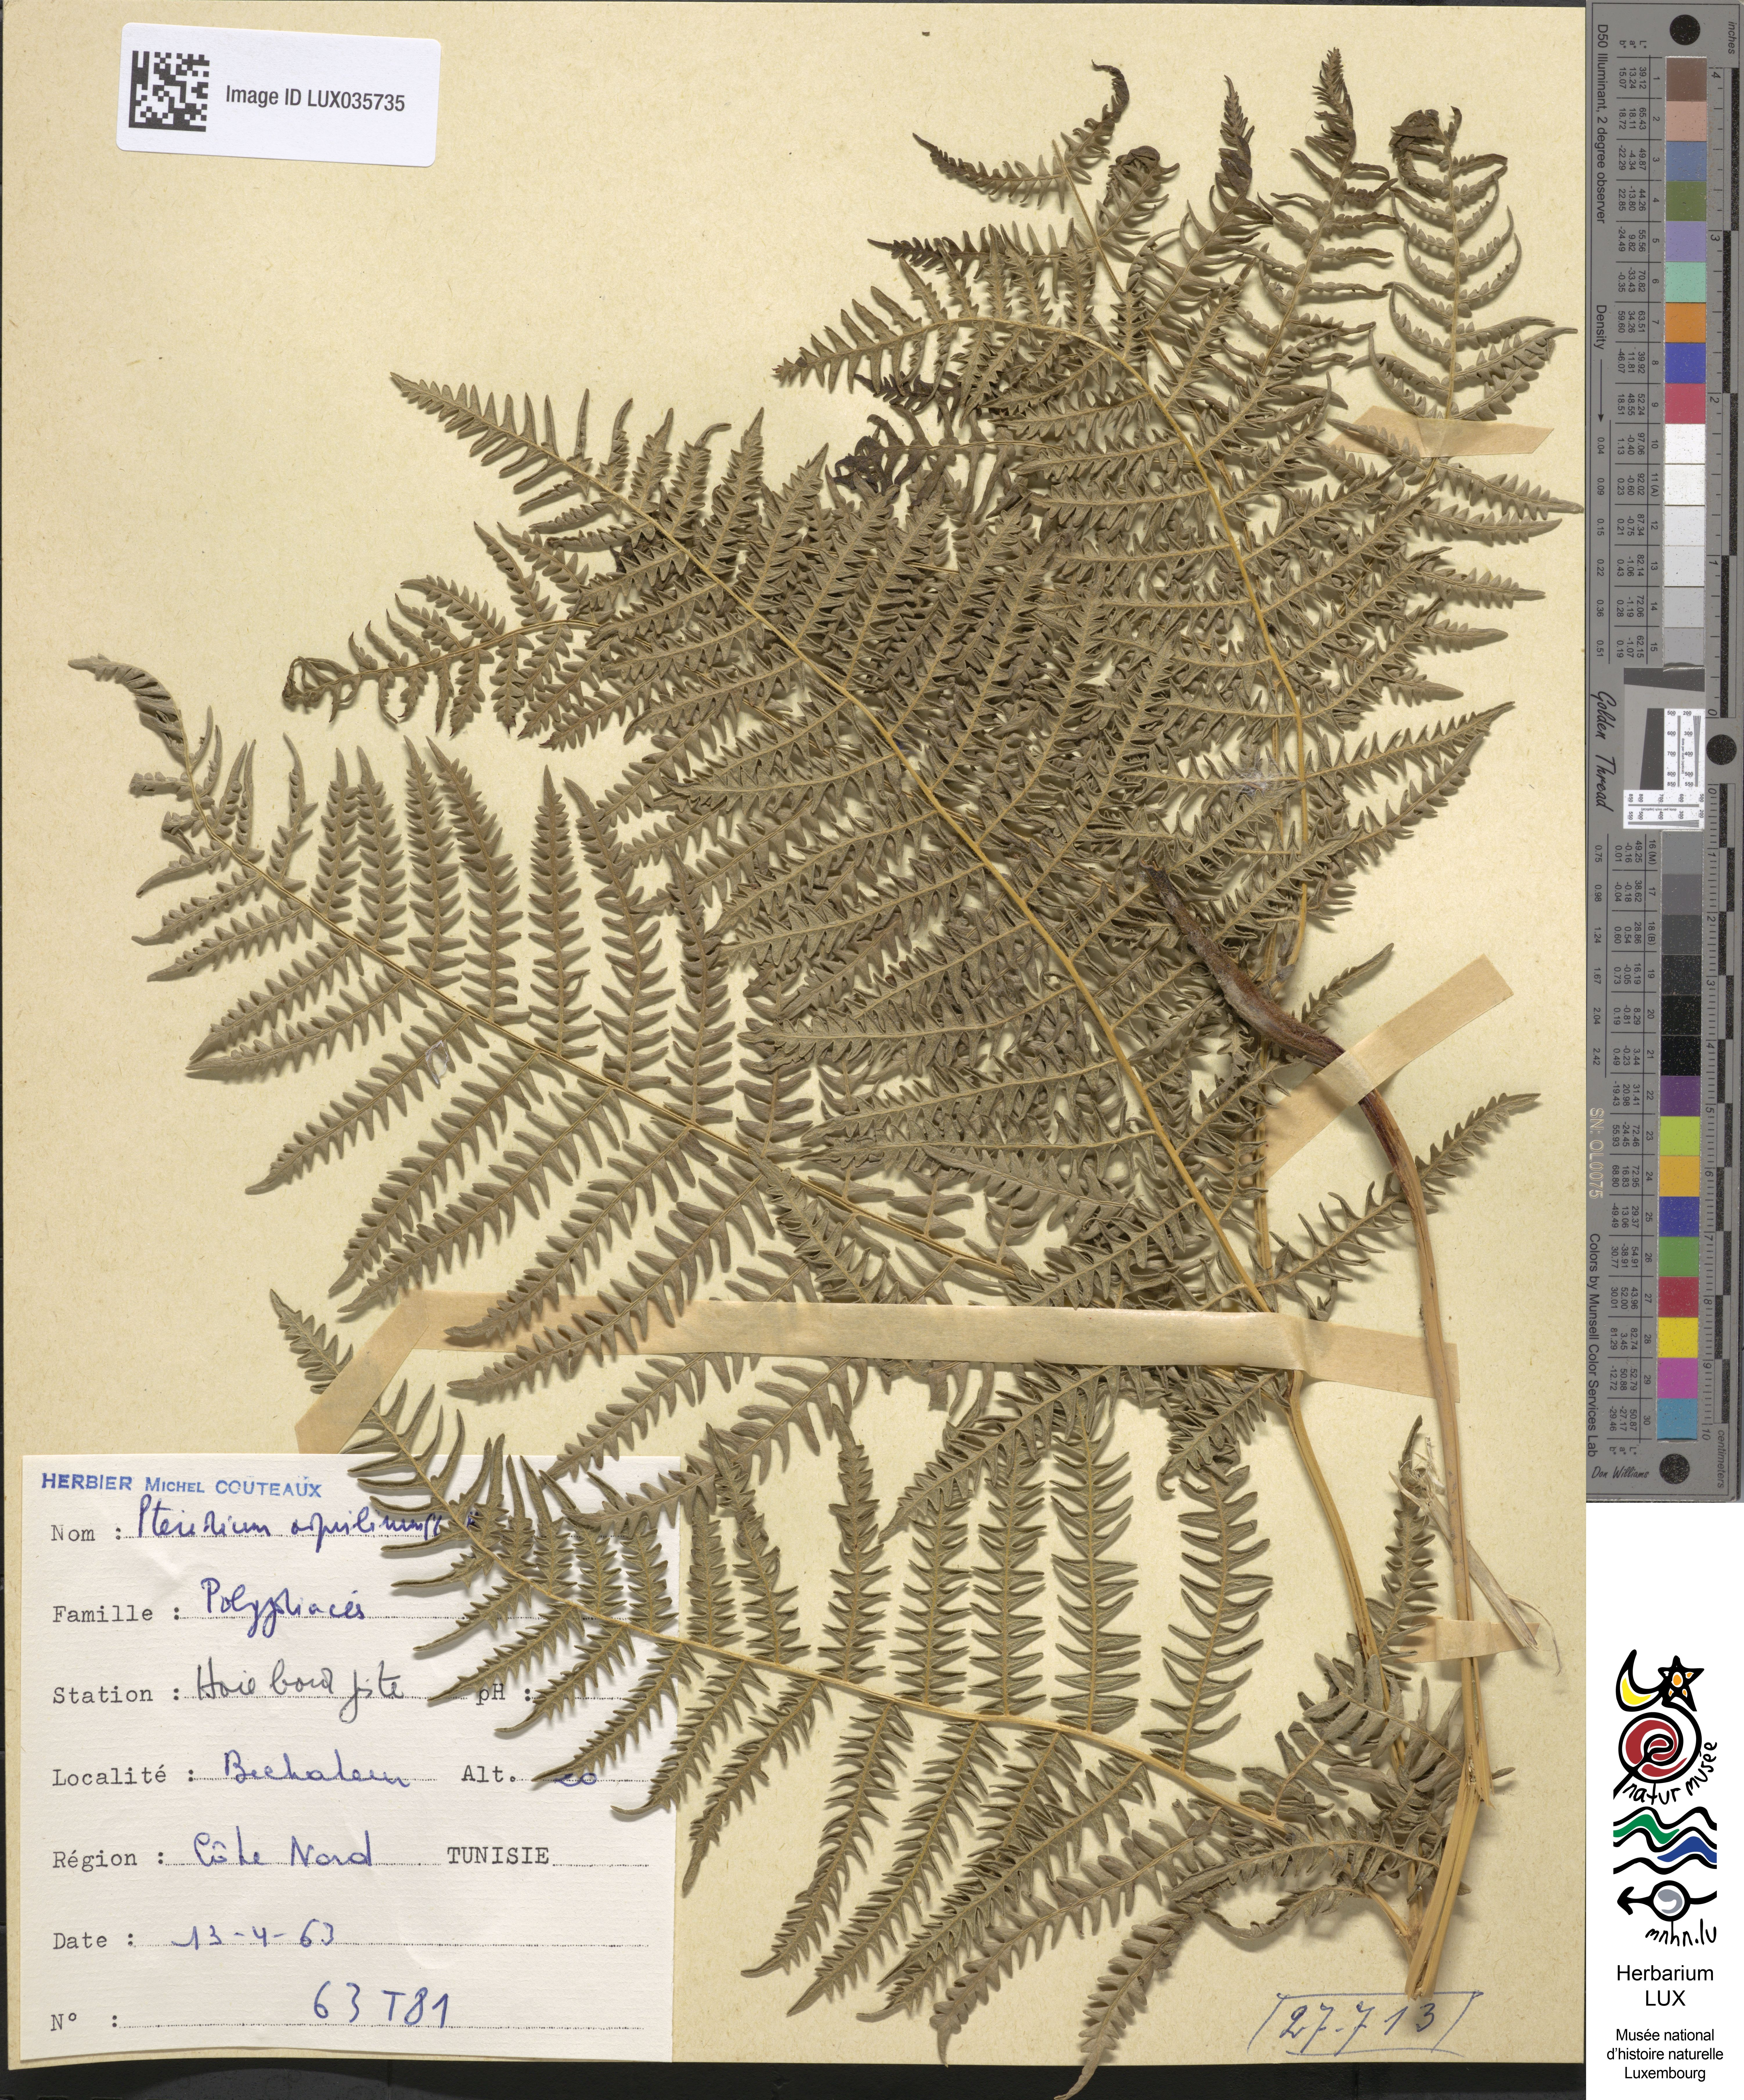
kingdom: Plantae
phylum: Tracheophyta
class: Polypodiopsida
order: Polypodiales
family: Dennstaedtiaceae
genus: Pteridium
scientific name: Pteridium aquilinum
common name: Bracken
